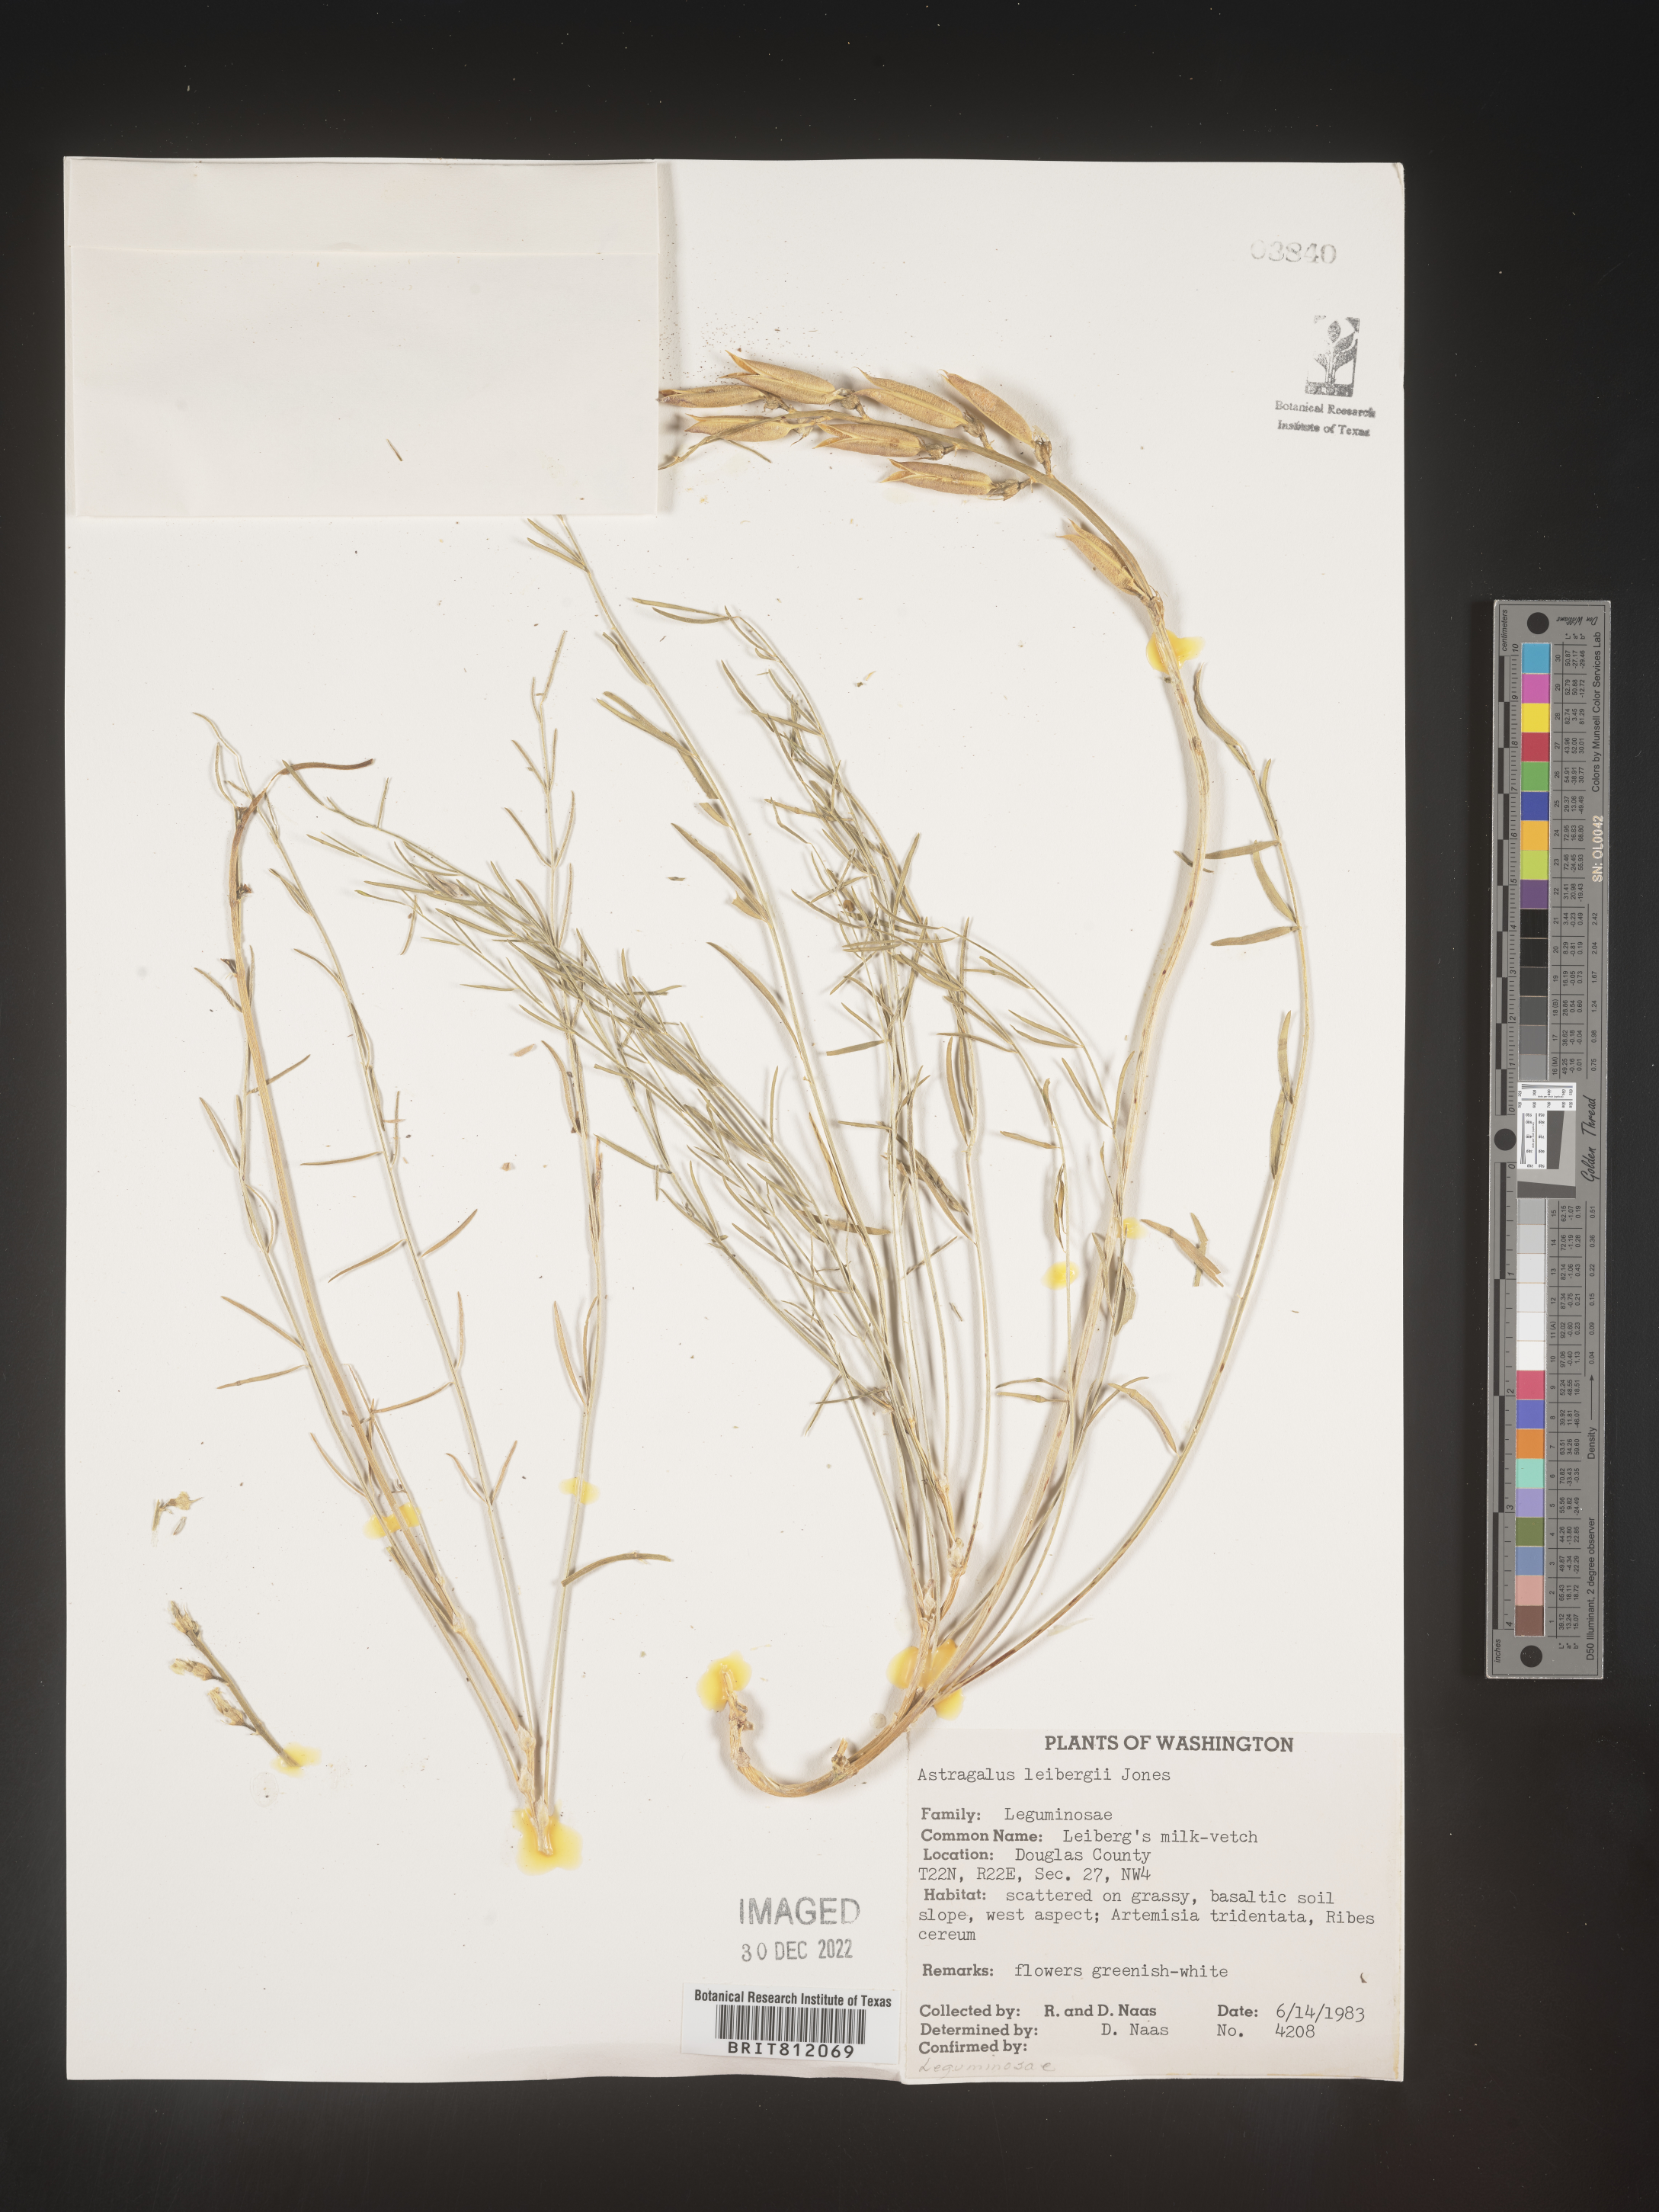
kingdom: Plantae
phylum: Tracheophyta
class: Magnoliopsida
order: Fabales
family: Fabaceae
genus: Astragalus
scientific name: Astragalus
